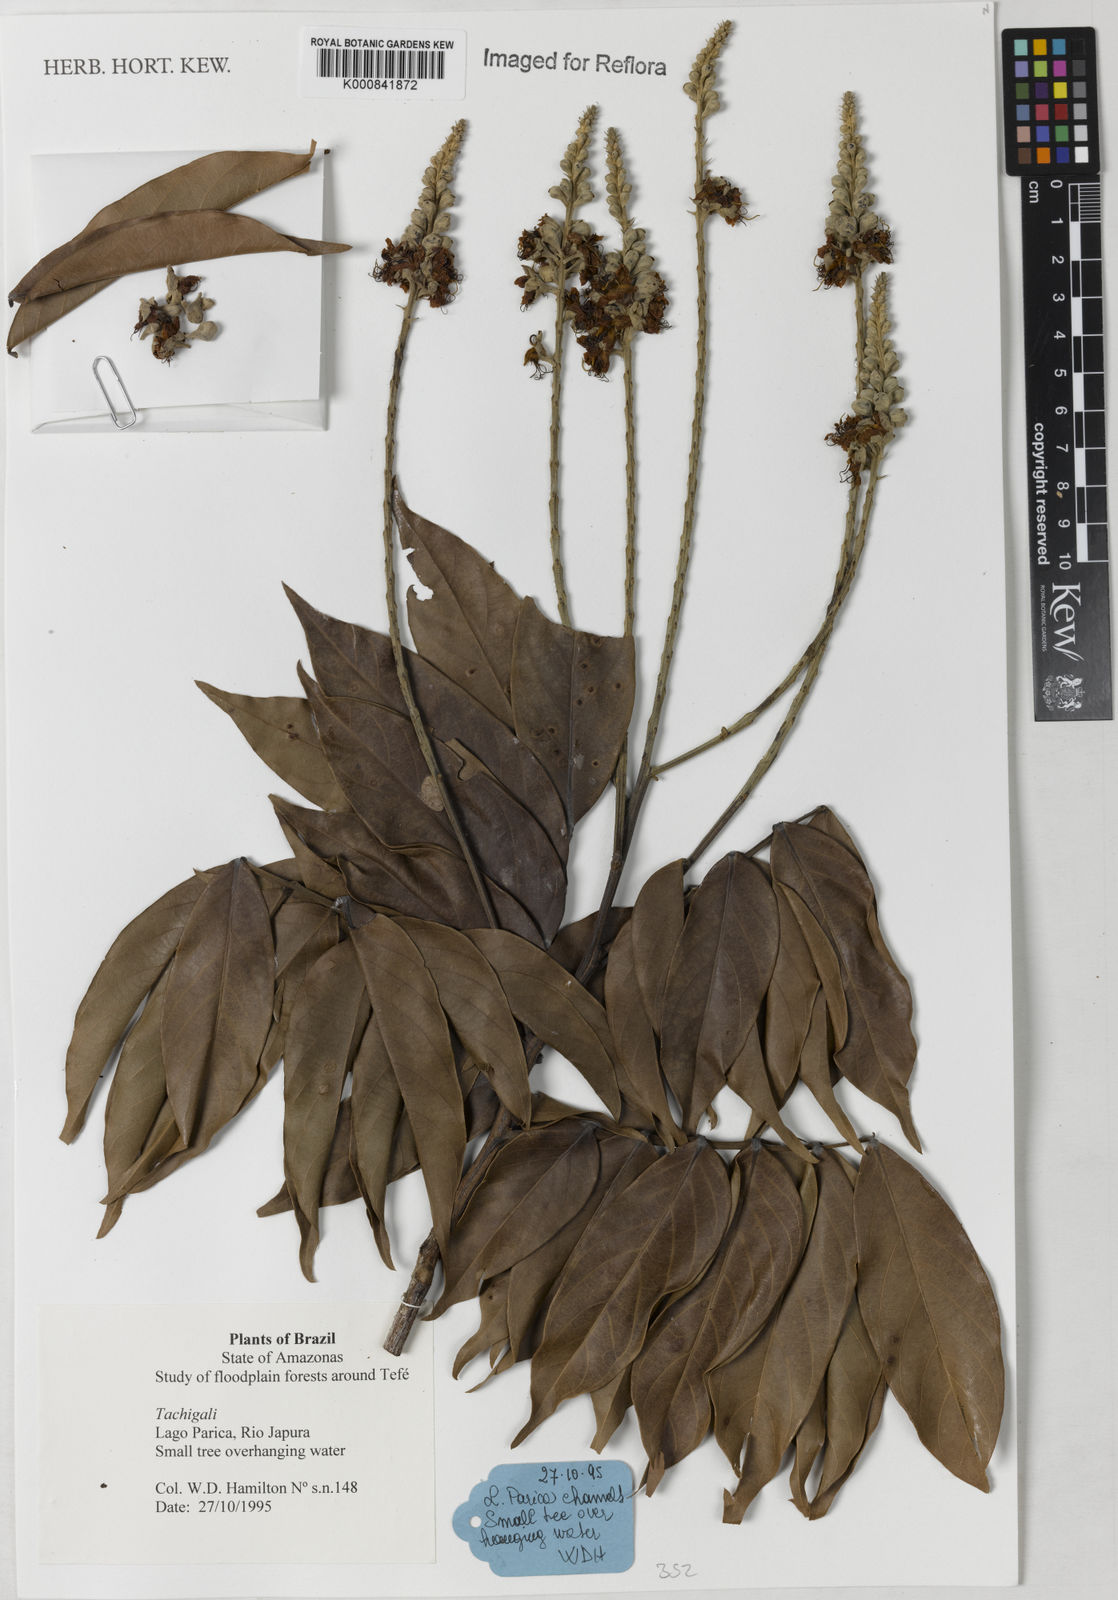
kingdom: Plantae
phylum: Tracheophyta
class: Magnoliopsida
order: Fabales
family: Fabaceae
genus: Tachigali
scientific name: Tachigali
